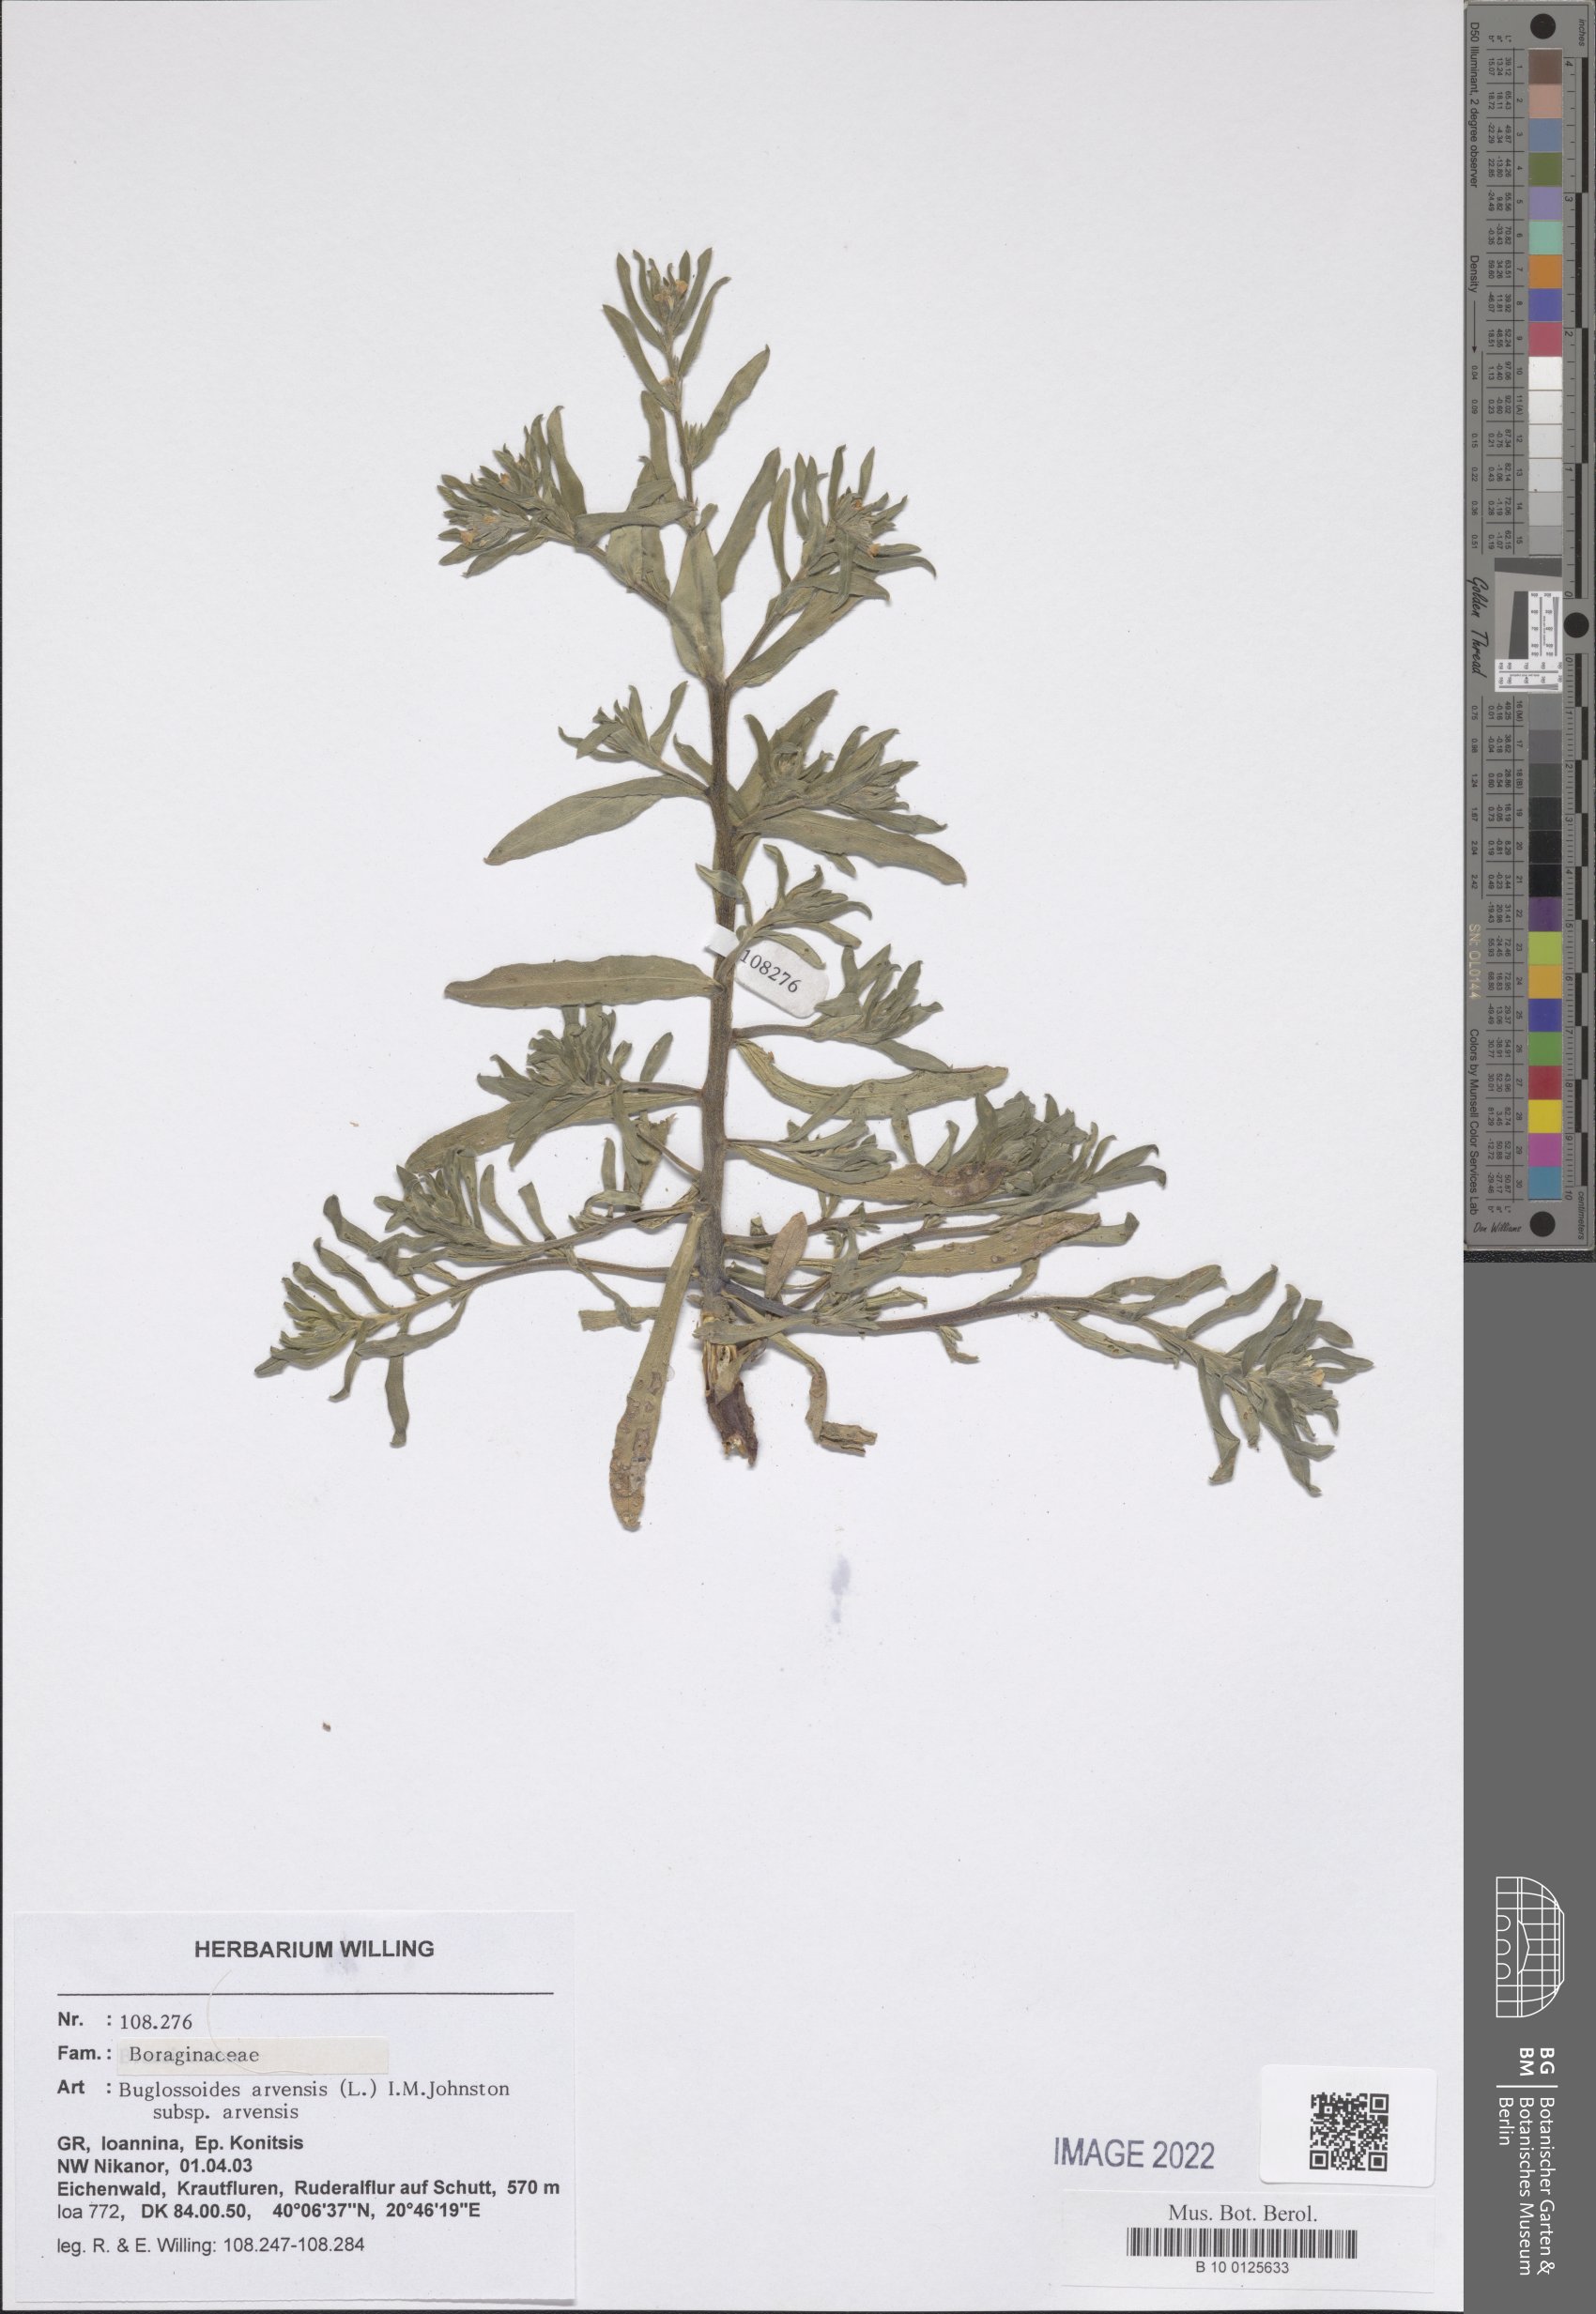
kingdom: Plantae
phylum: Tracheophyta
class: Magnoliopsida
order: Boraginales
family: Boraginaceae
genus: Buglossoides
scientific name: Buglossoides arvensis
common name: Corn gromwell
